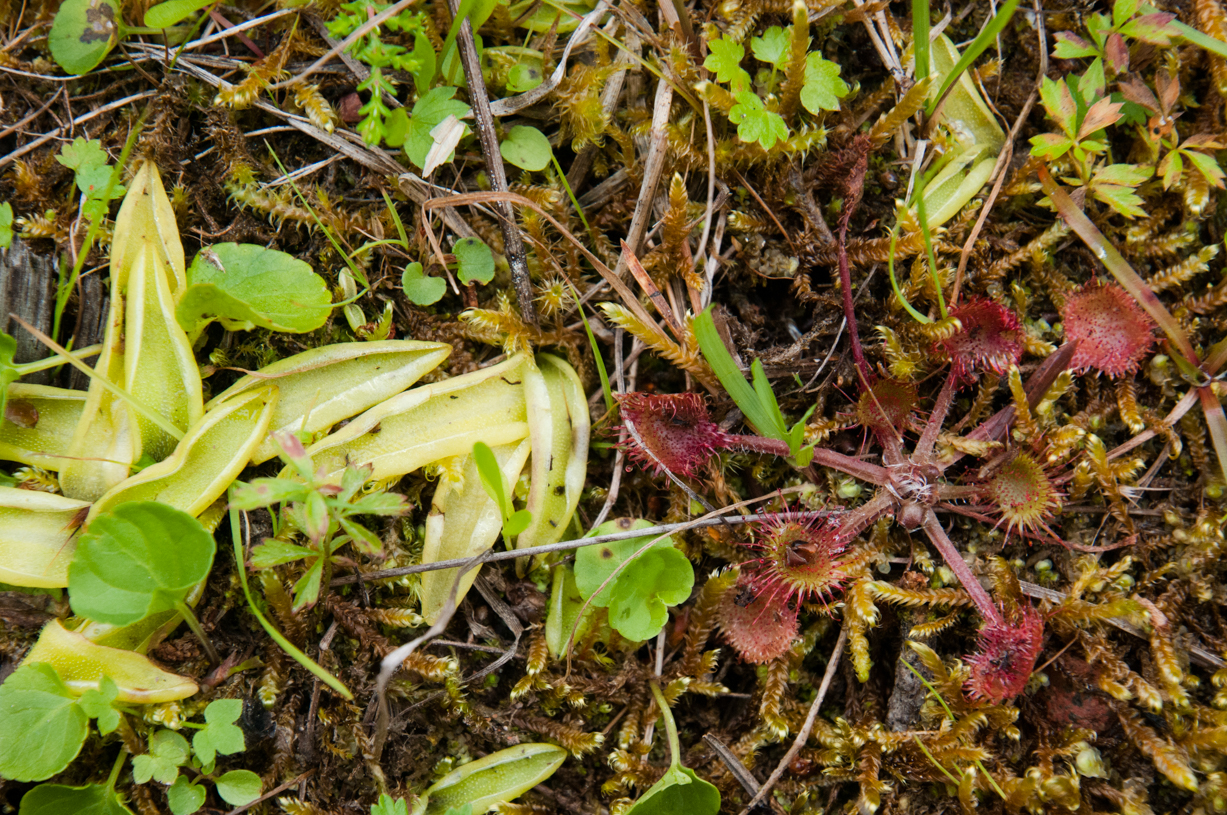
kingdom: Plantae
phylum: Tracheophyta
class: Magnoliopsida
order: Lamiales
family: Lentibulariaceae
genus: Pinguicula
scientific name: Pinguicula vulgaris
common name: Common butterwort
